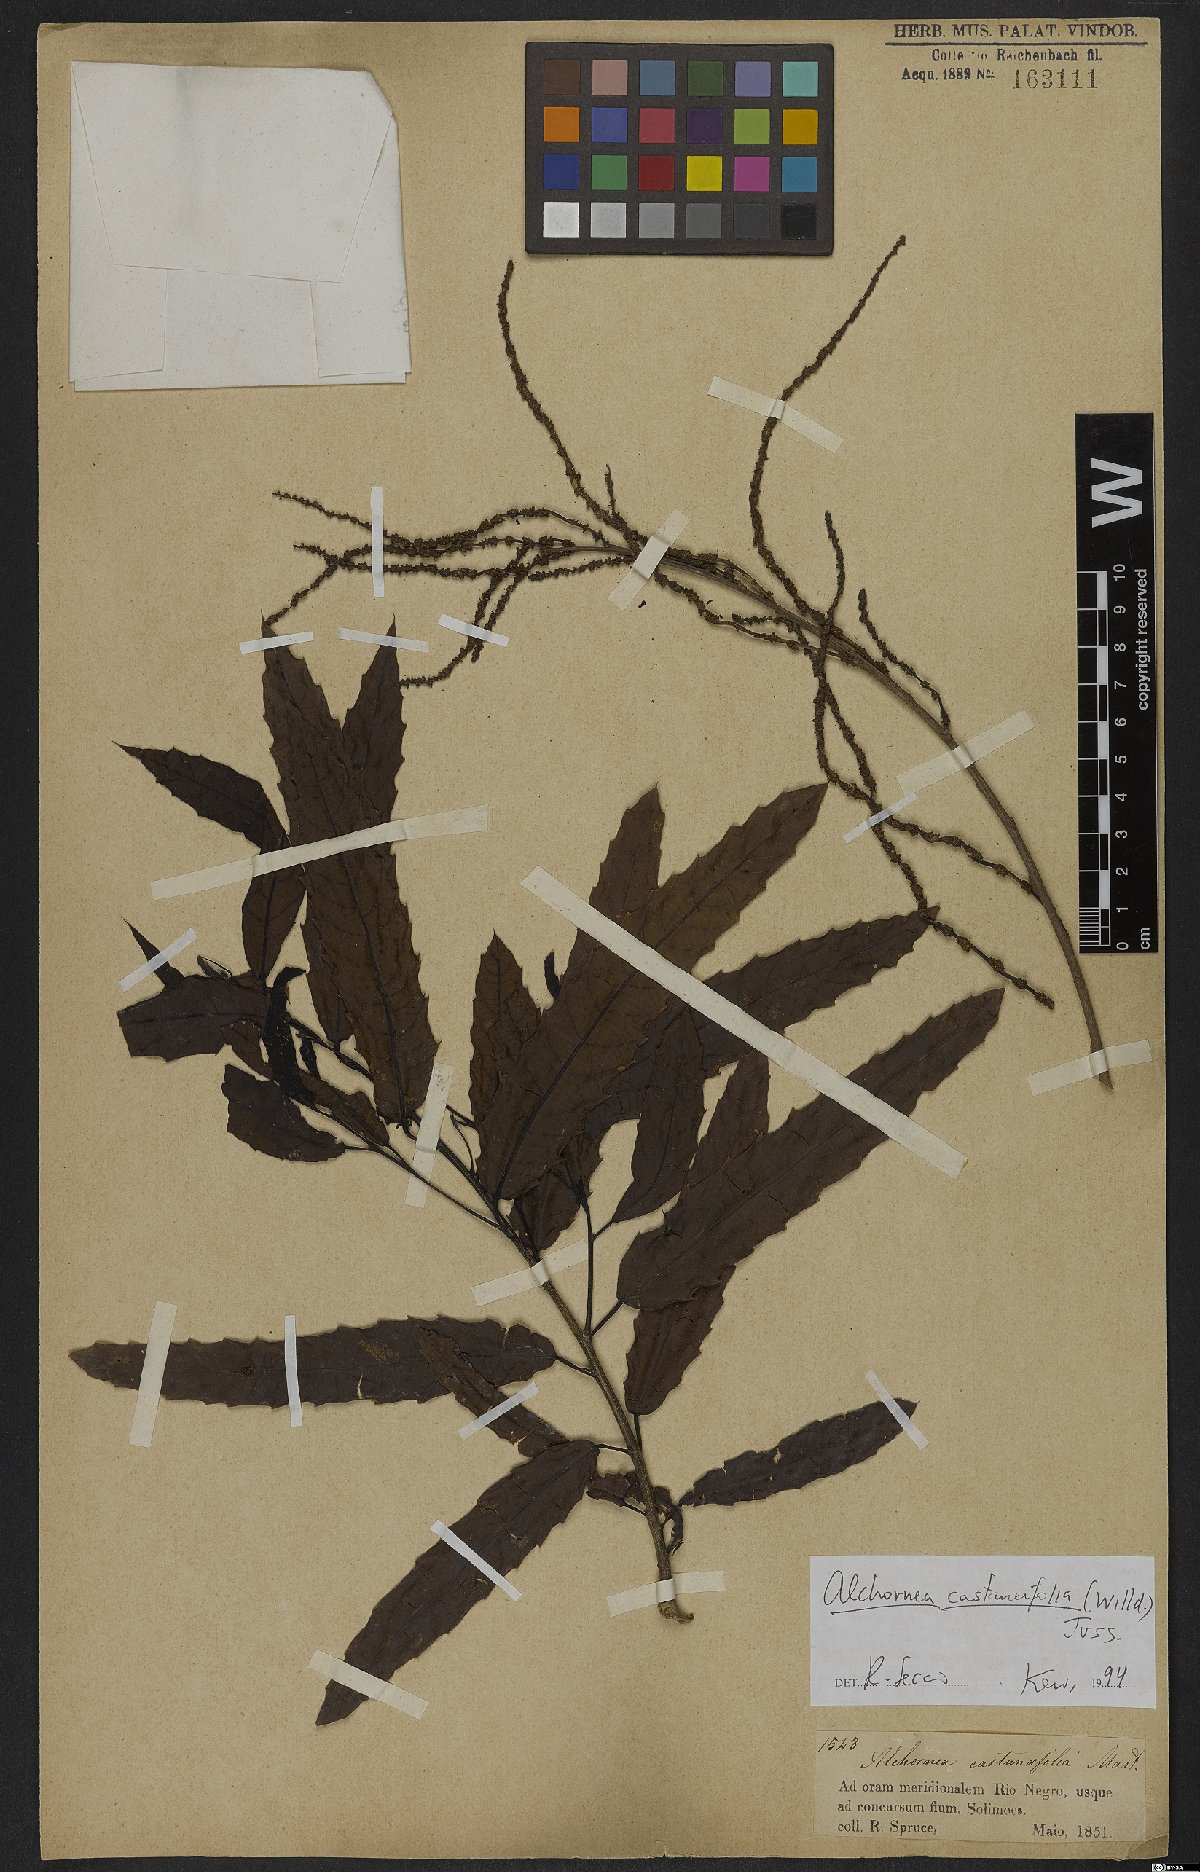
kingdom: Plantae
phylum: Tracheophyta
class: Magnoliopsida
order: Malpighiales
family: Euphorbiaceae
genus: Alchornea
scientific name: Alchornea castaneifolia
